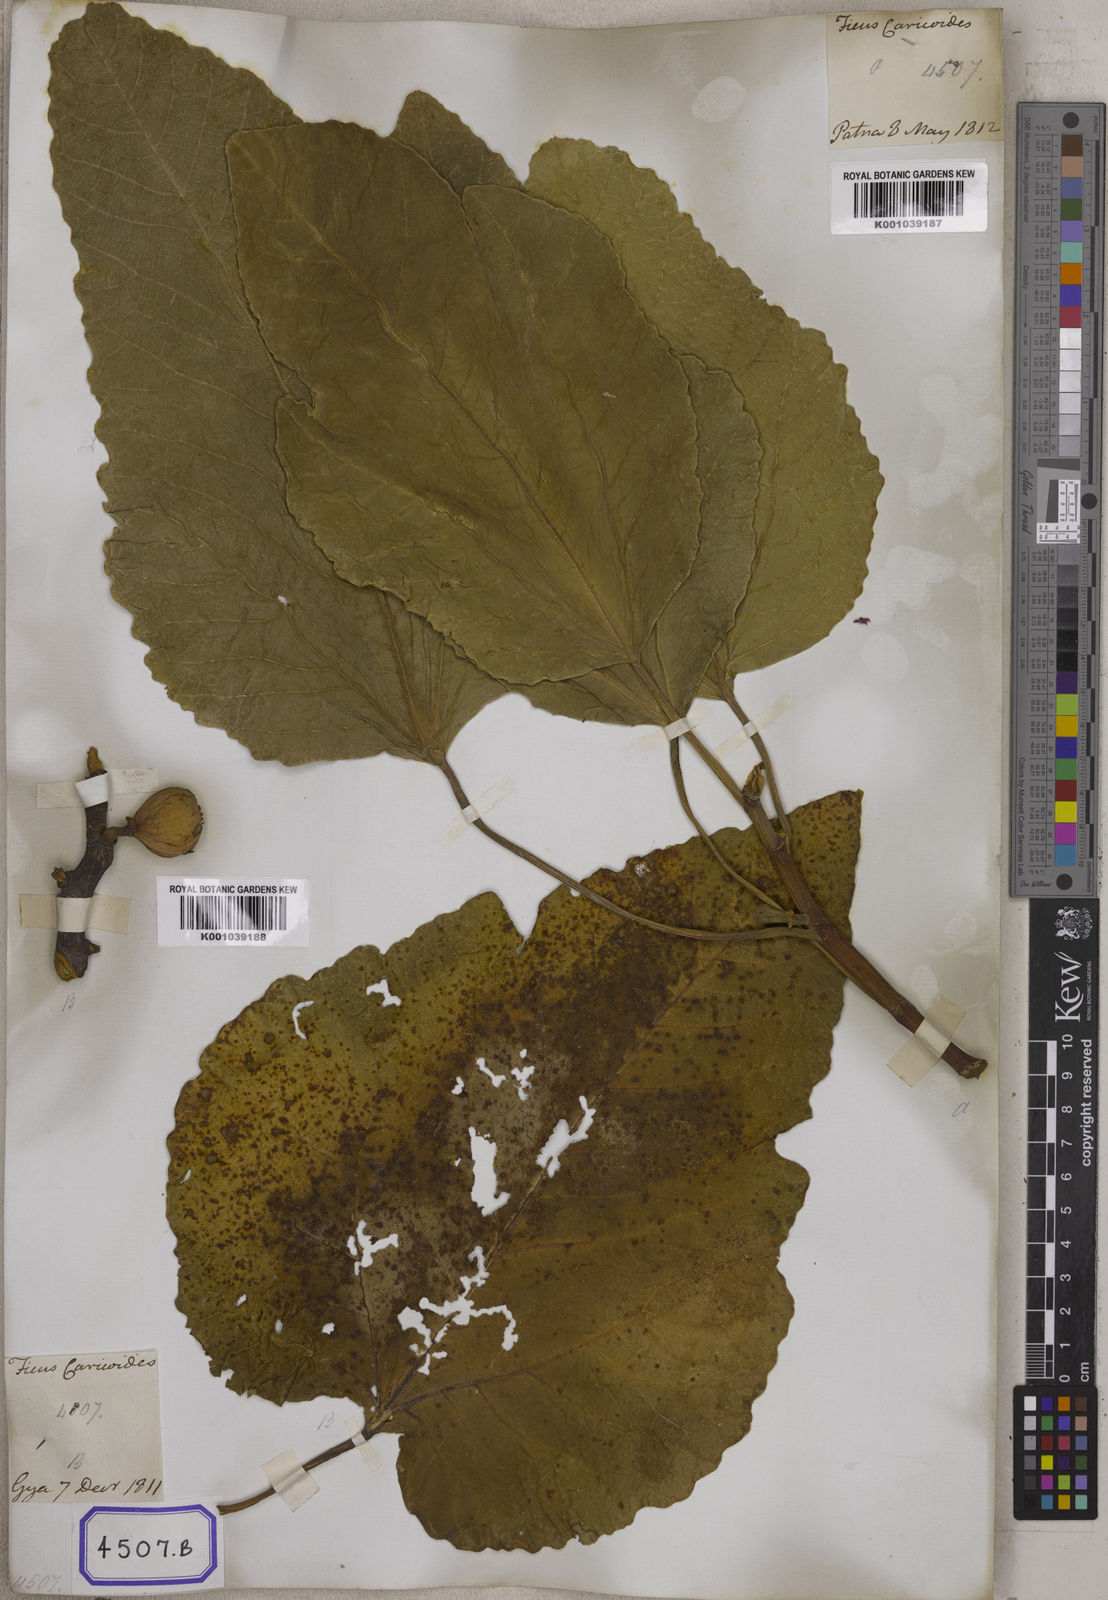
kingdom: Plantae
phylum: Tracheophyta
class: Magnoliopsida
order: Rosales
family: Moraceae
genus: Ficus
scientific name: Ficus palmata
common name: Punjab fig
